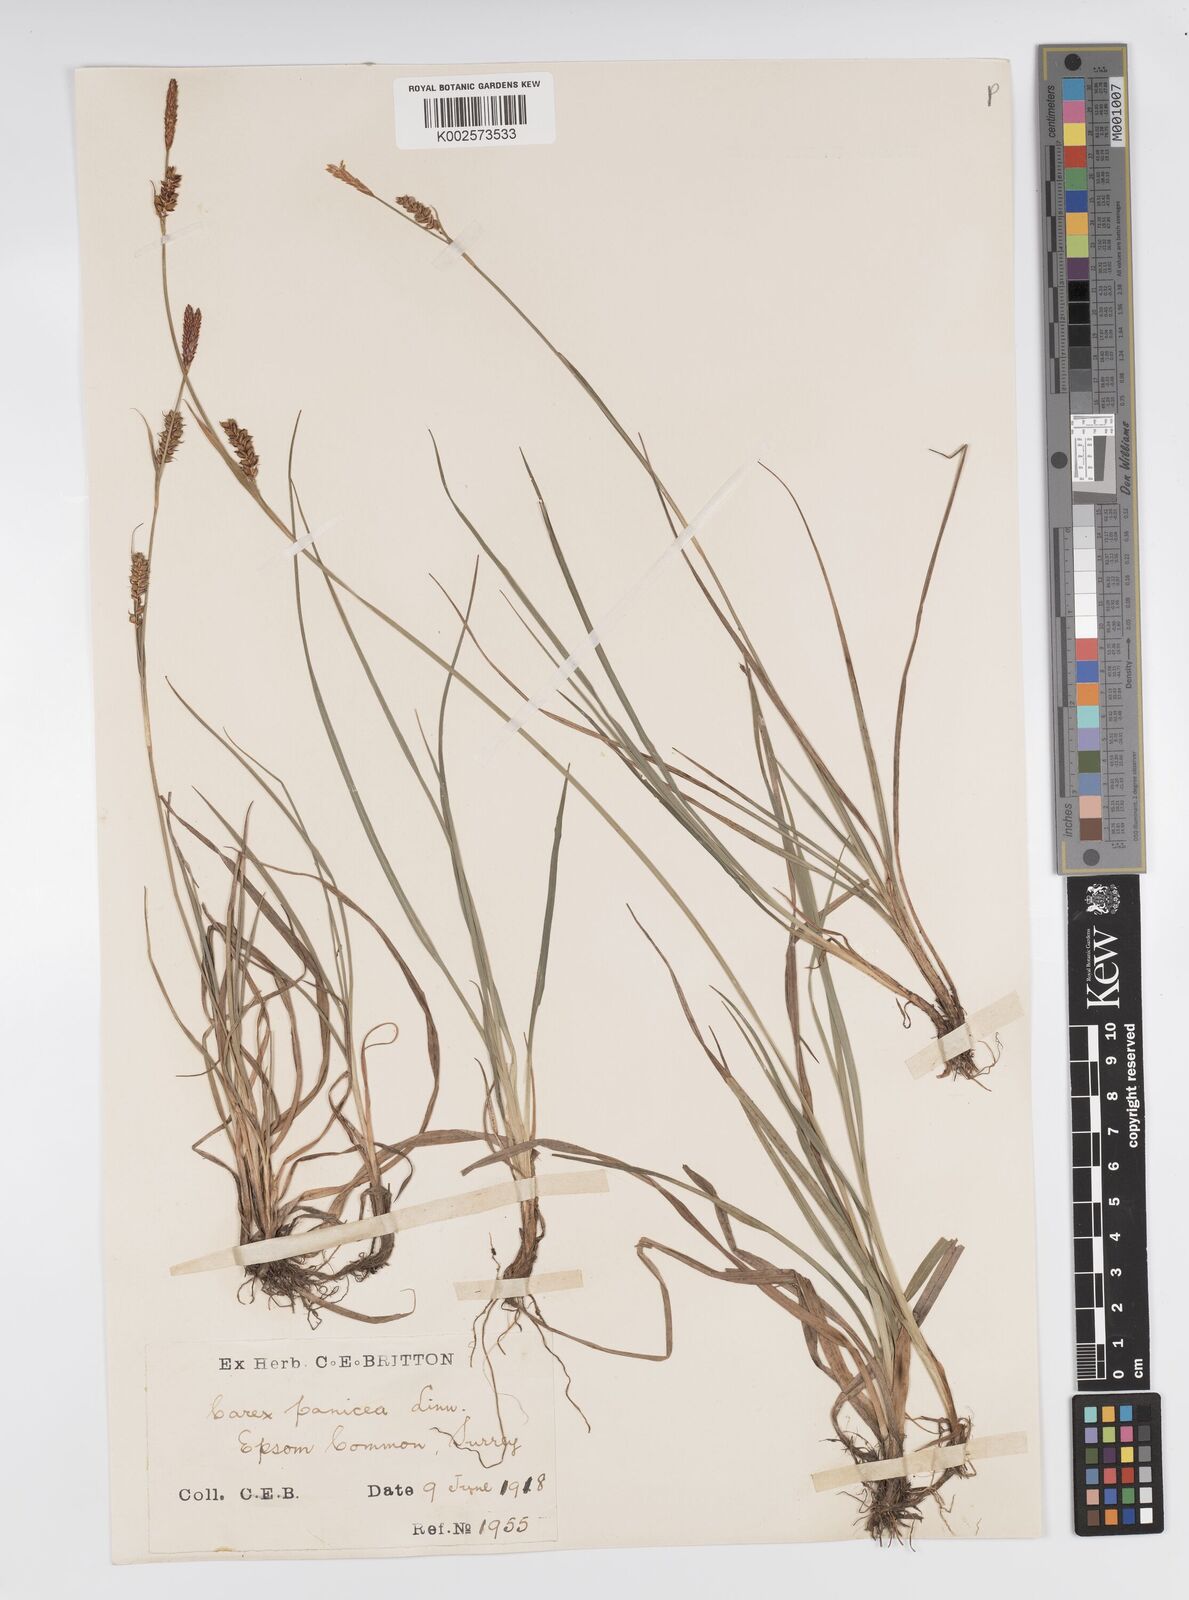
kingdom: Plantae
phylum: Tracheophyta
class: Liliopsida
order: Poales
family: Cyperaceae
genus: Carex
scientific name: Carex panicea
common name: Carnation sedge
